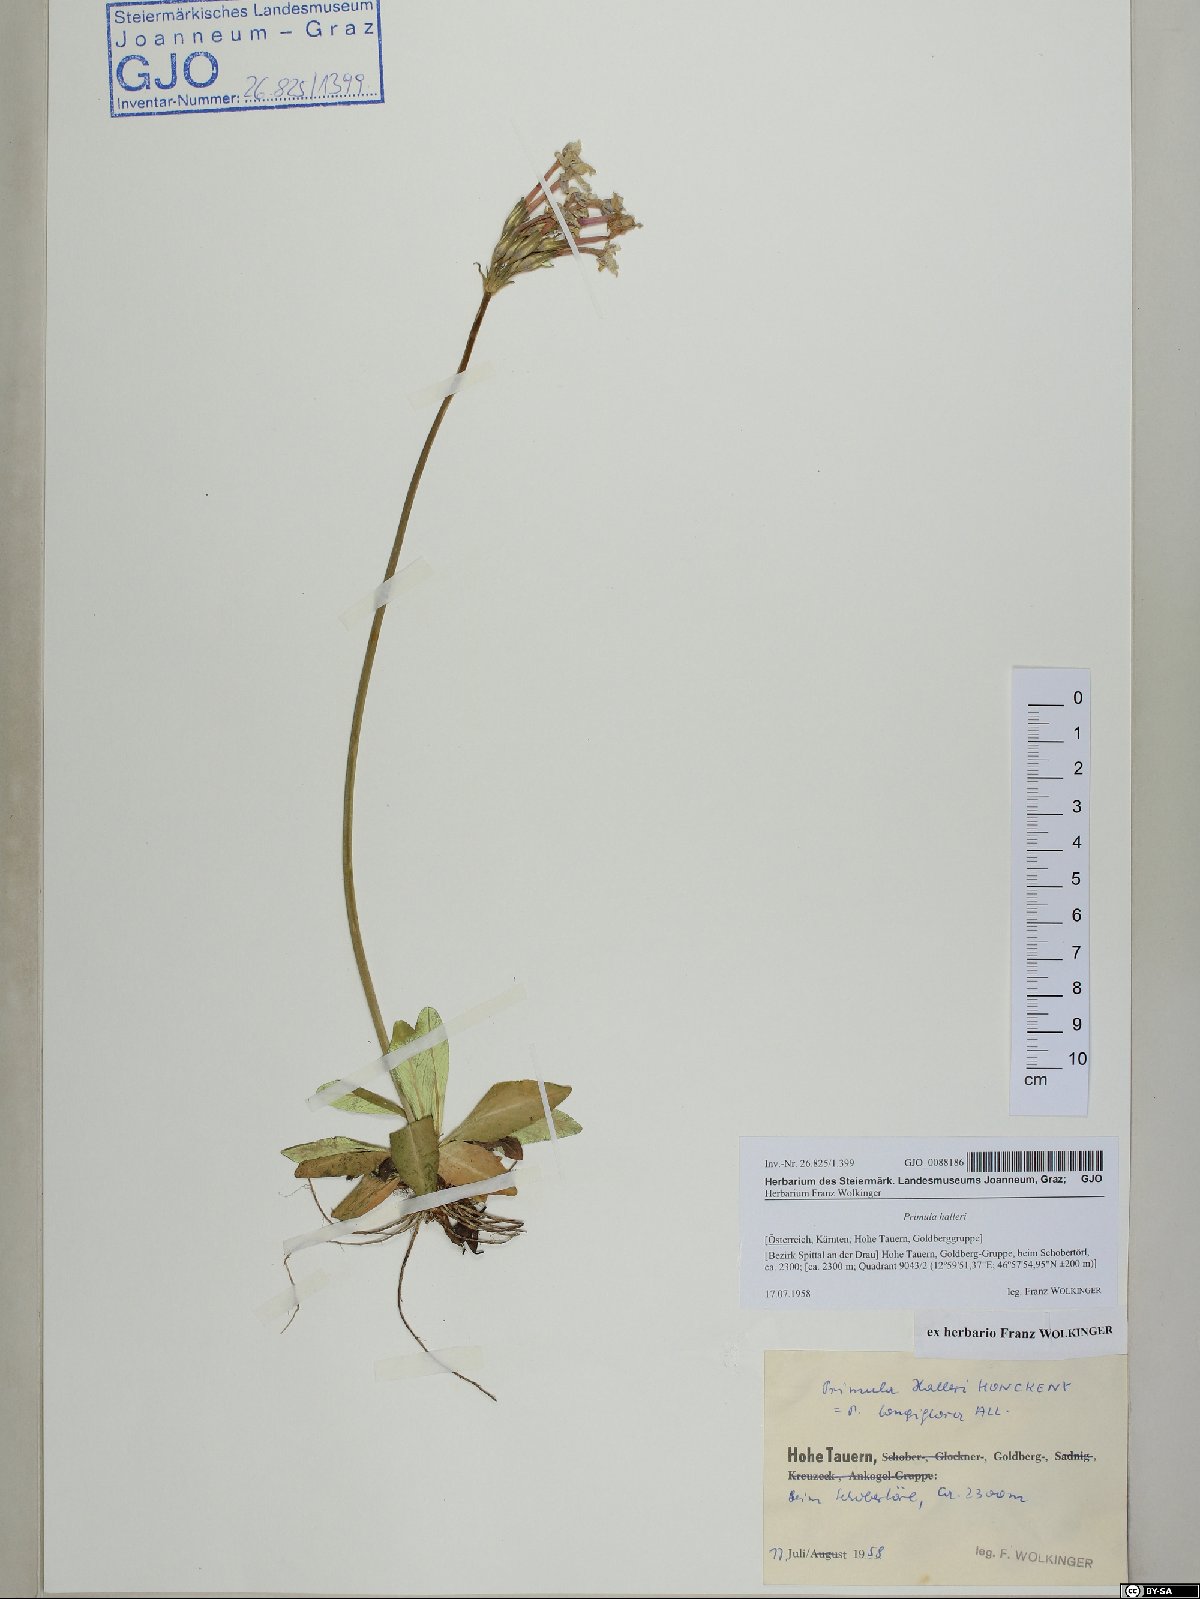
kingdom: Plantae
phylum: Tracheophyta
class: Magnoliopsida
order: Ericales
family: Primulaceae
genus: Primula
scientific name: Primula halleri
